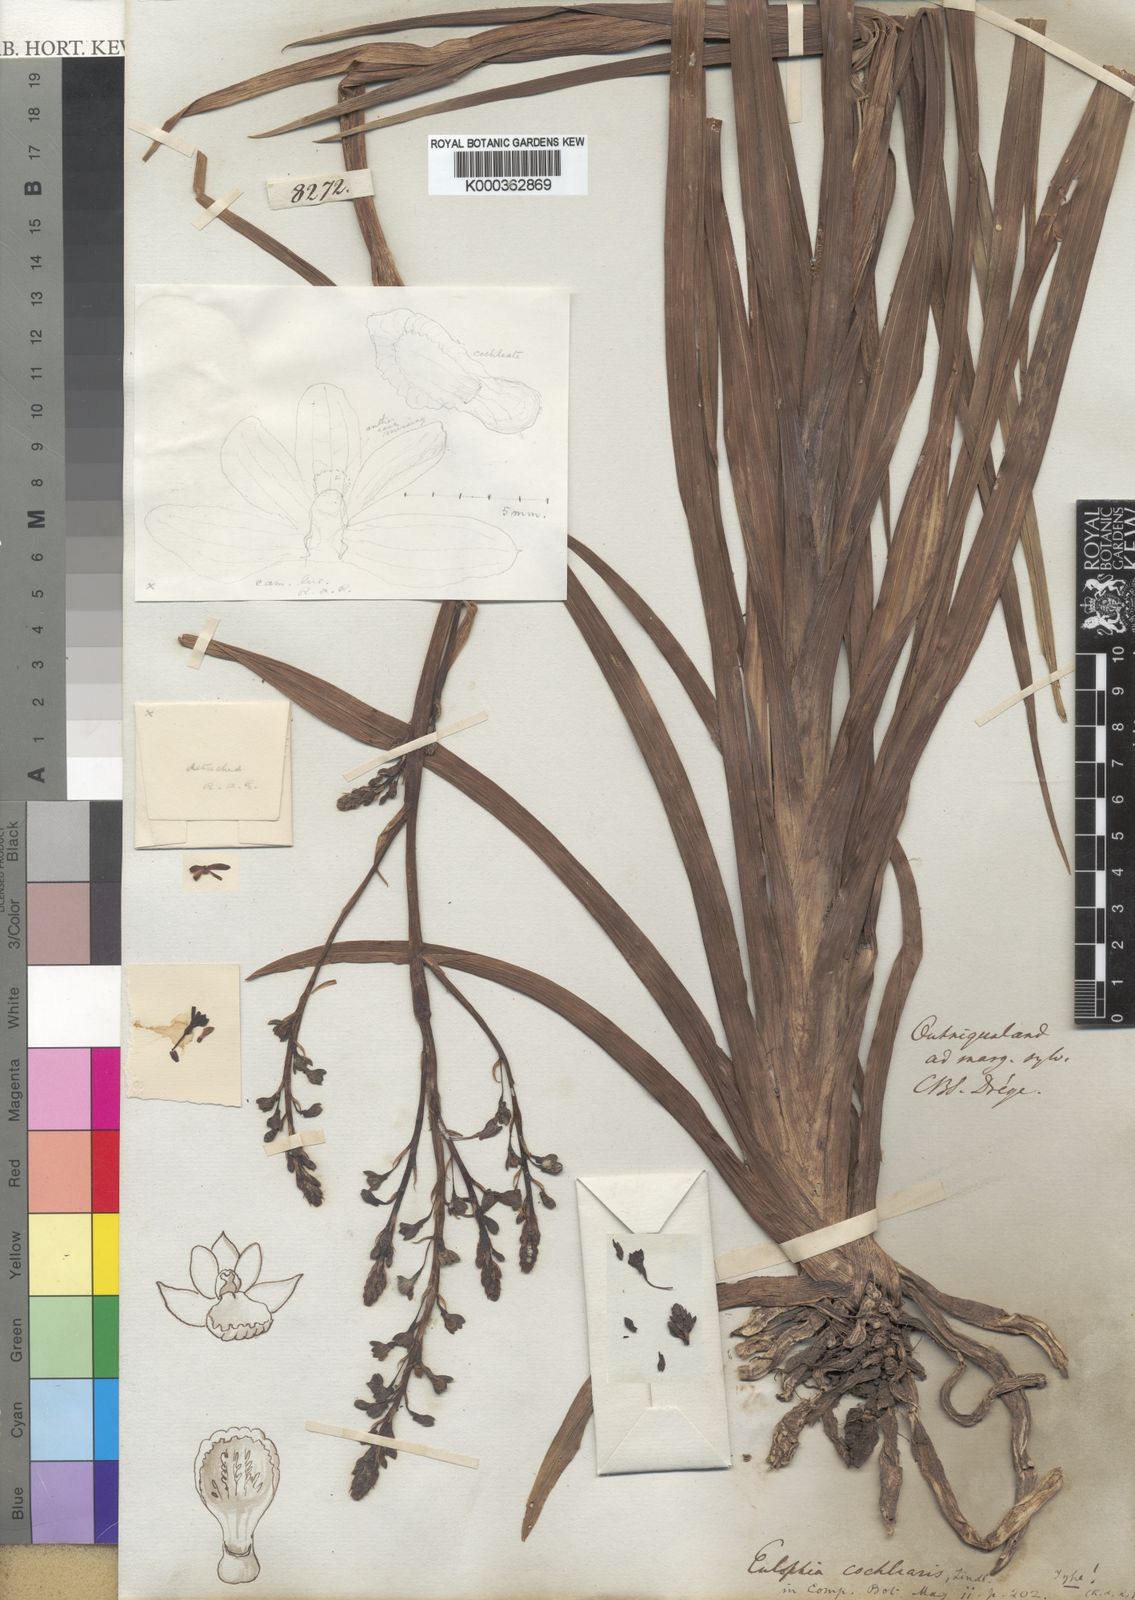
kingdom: Plantae
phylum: Tracheophyta
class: Liliopsida
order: Asparagales
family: Orchidaceae
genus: Eulophia
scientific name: Eulophia cochlearis
